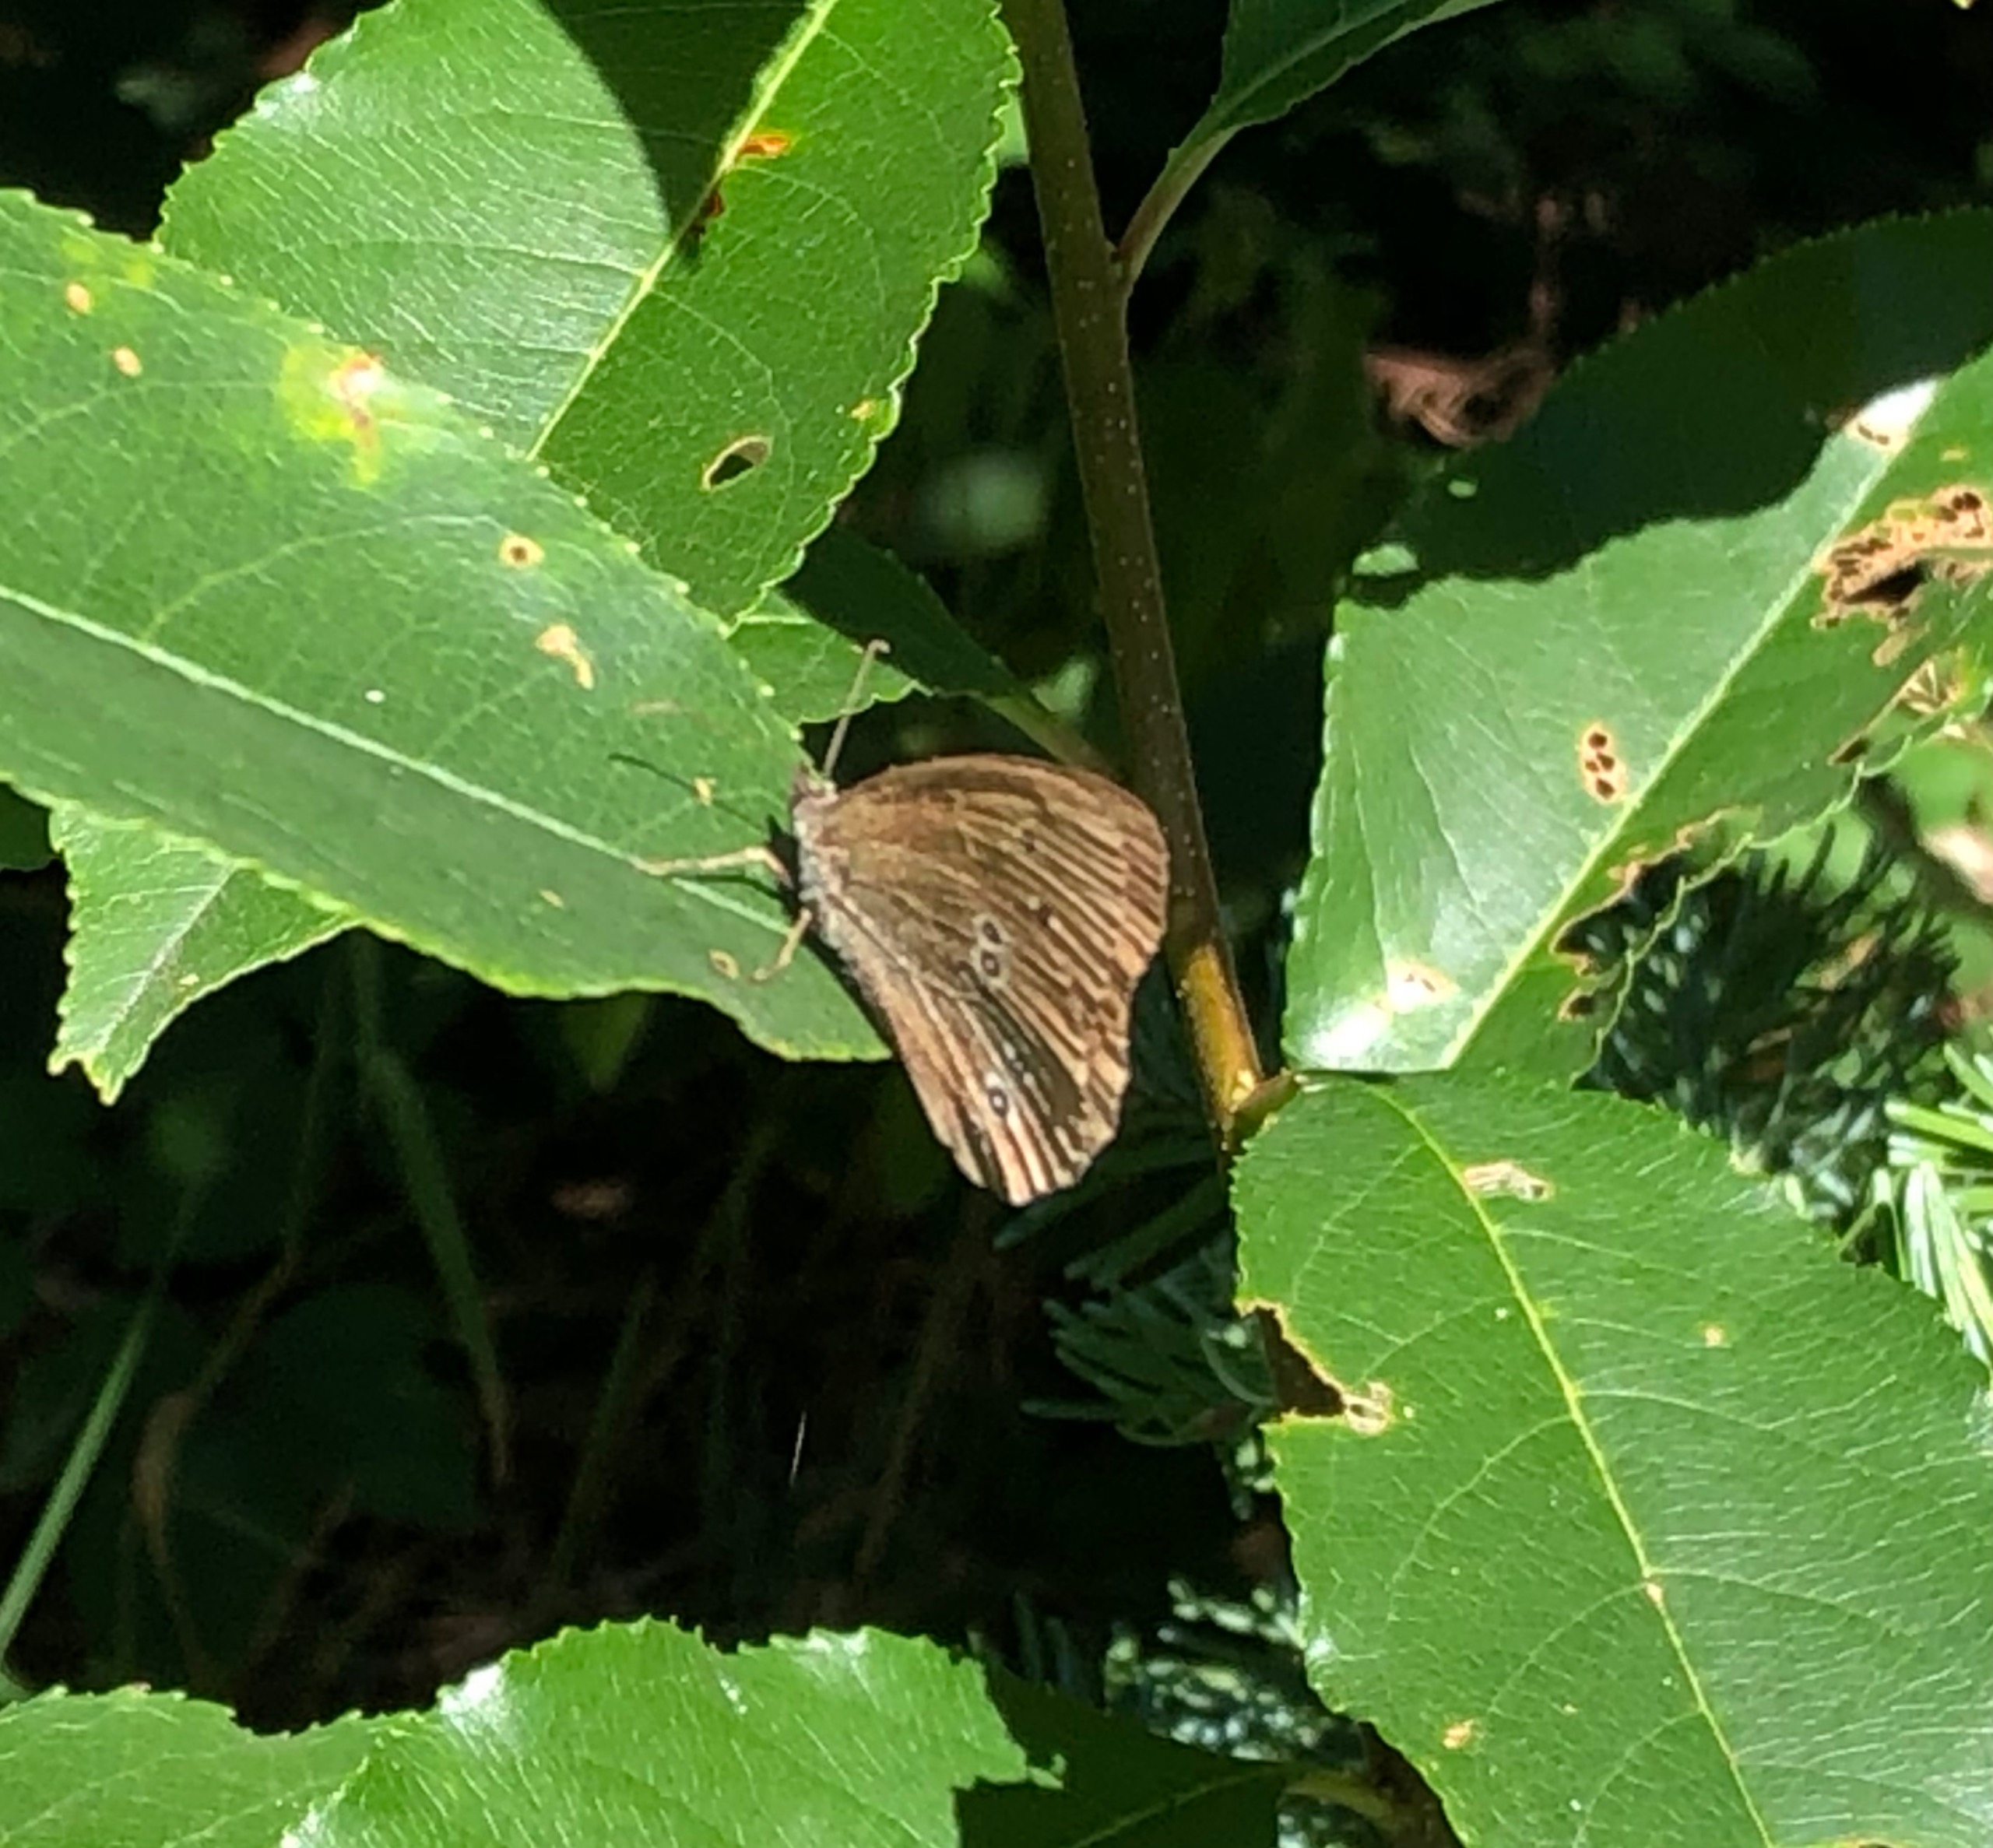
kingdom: Animalia
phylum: Arthropoda
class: Insecta
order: Lepidoptera
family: Nymphalidae
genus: Aphantopus
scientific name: Aphantopus hyperantus
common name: Engrandøje
